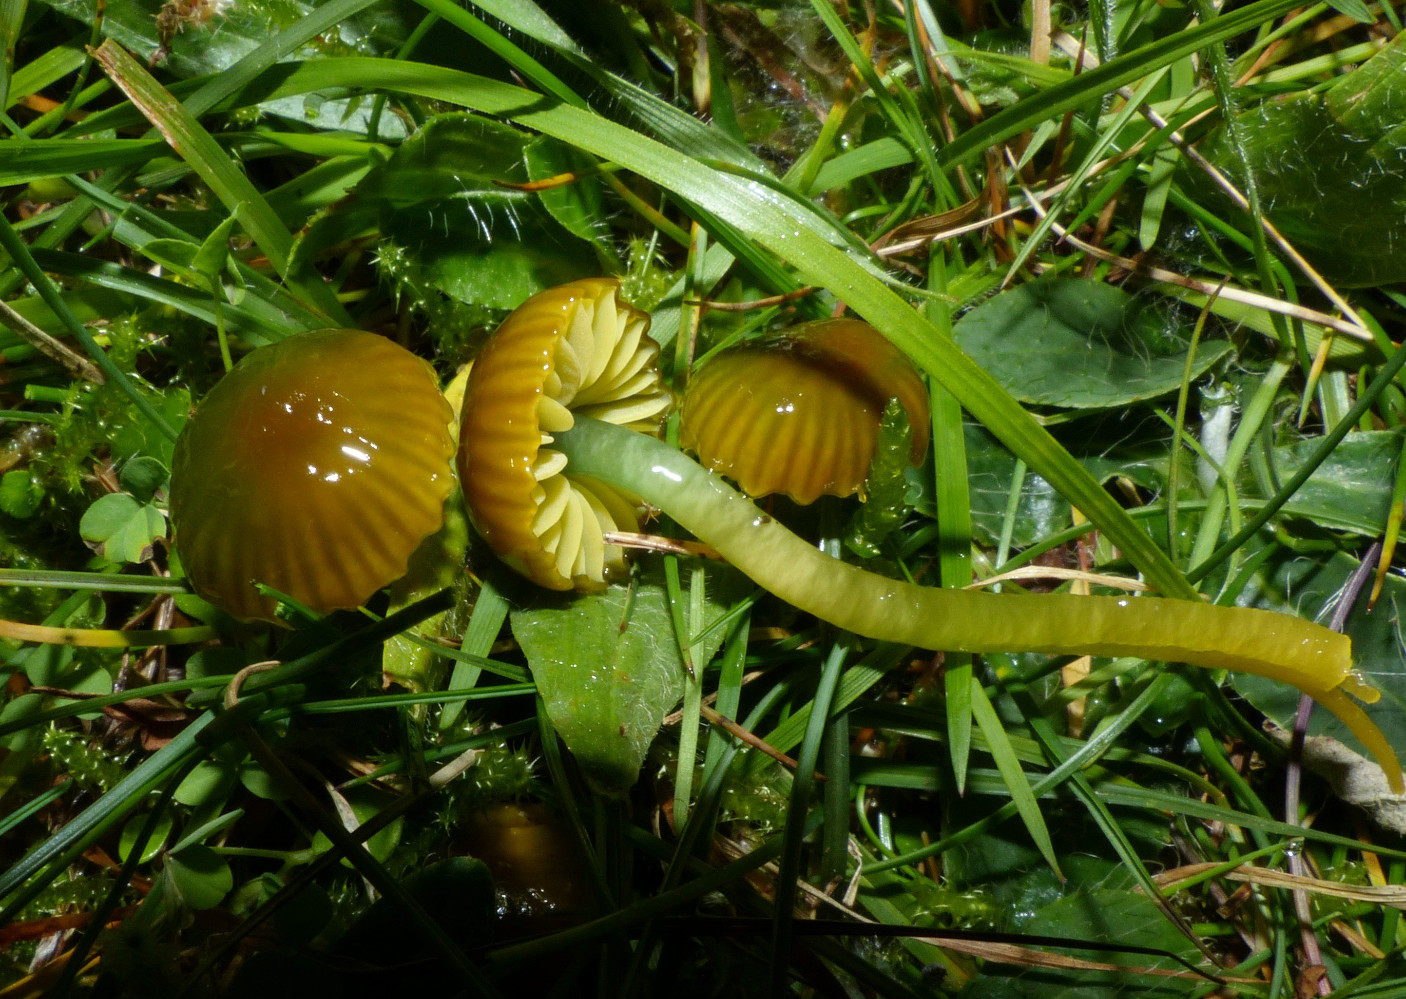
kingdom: Fungi
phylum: Basidiomycota
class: Agaricomycetes
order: Agaricales
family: Hygrophoraceae
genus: Gliophorus
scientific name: Gliophorus psittacinus
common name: papegøje-vokshat
